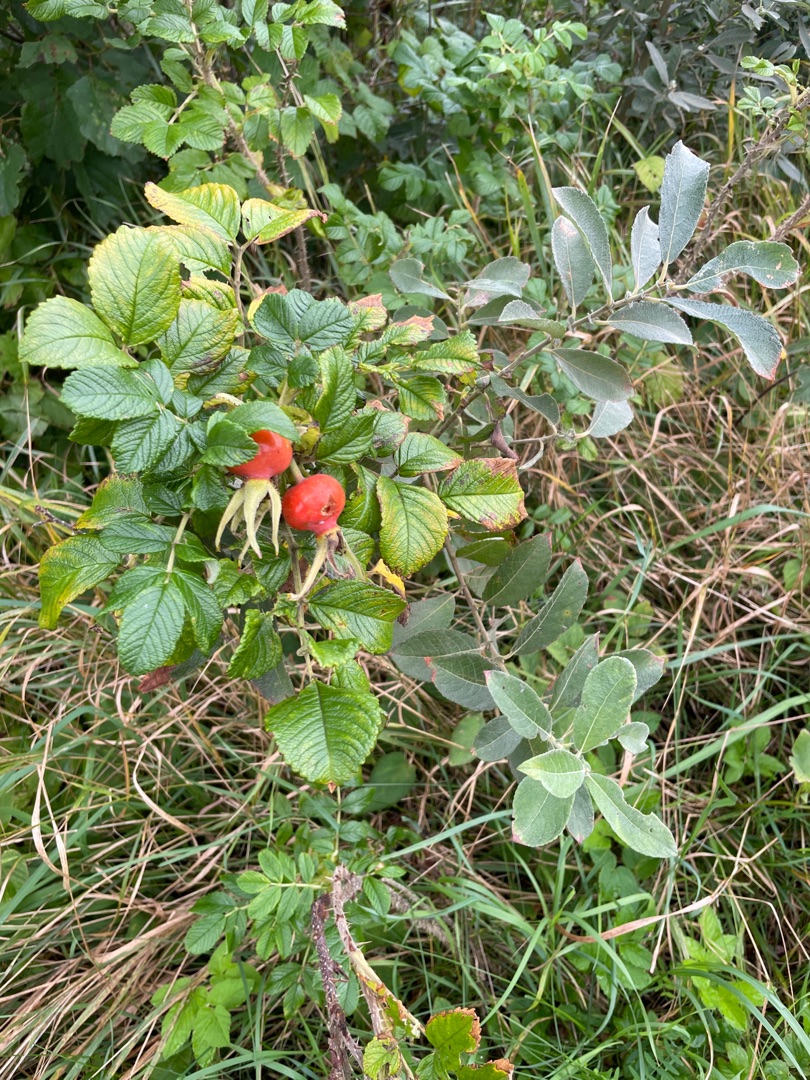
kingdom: Plantae
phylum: Tracheophyta
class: Magnoliopsida
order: Rosales
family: Rosaceae
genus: Rosa
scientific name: Rosa rugosa
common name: Rynket rose
